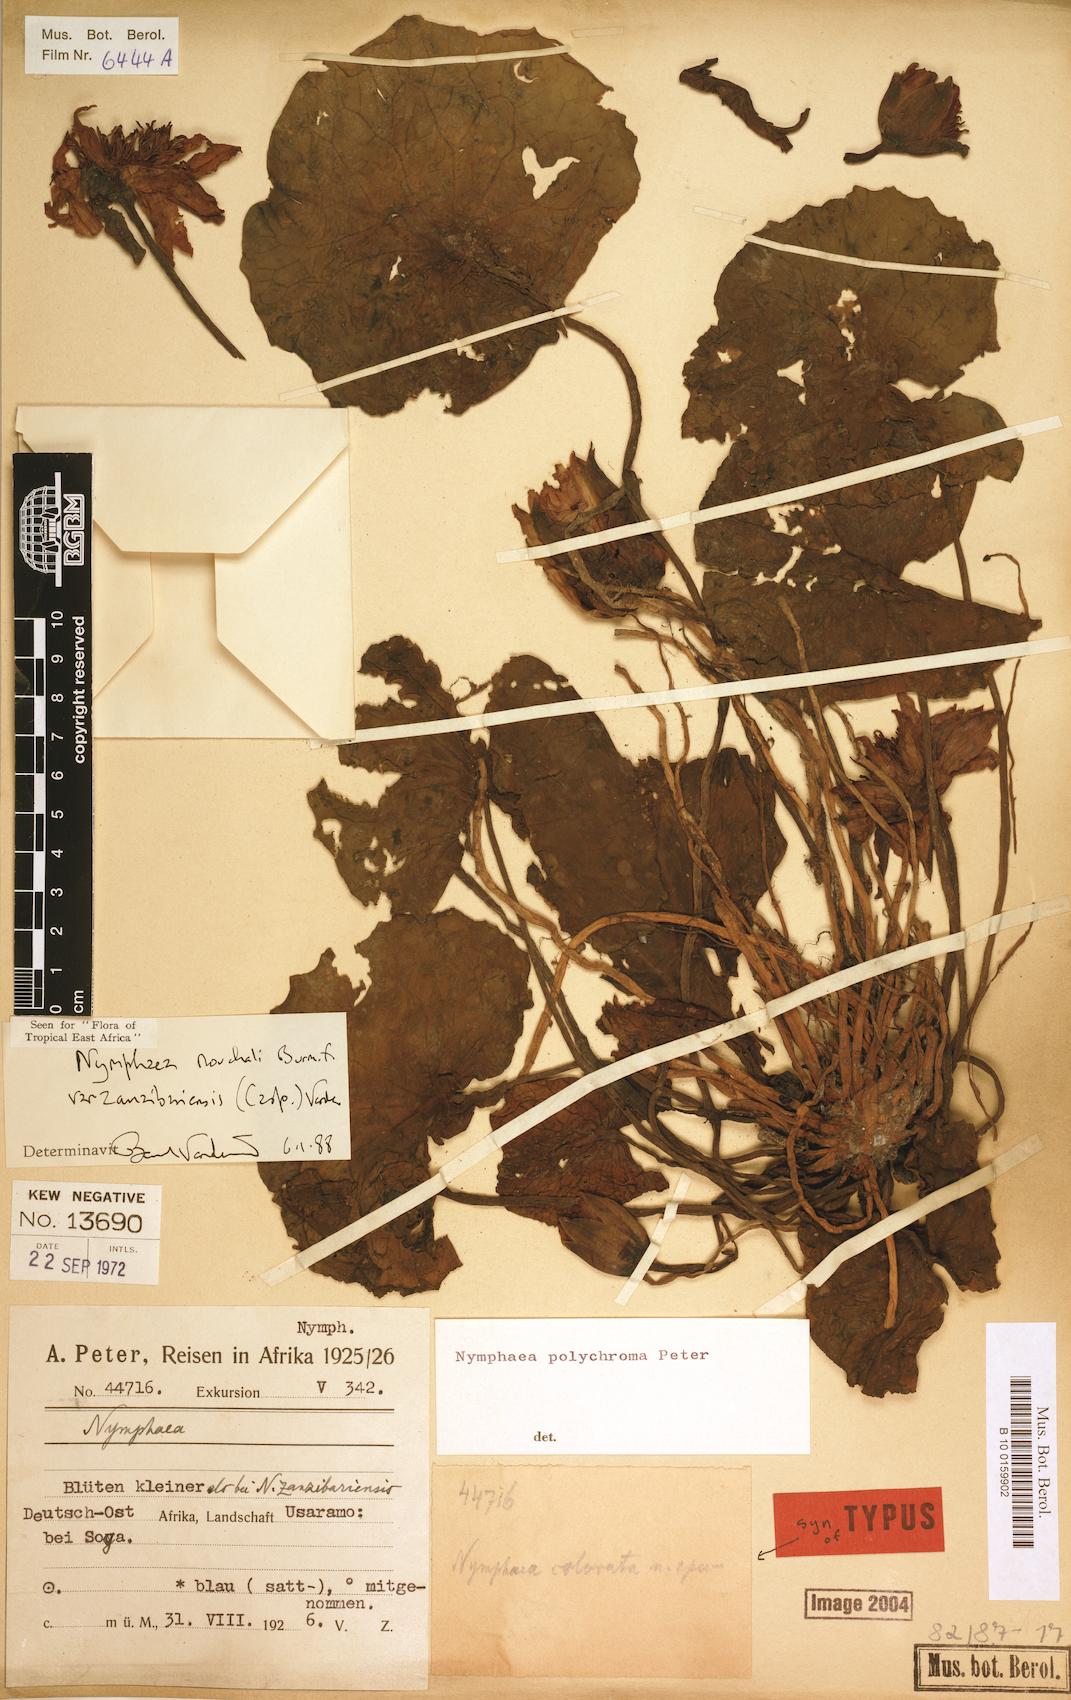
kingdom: Plantae
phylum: Tracheophyta
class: Magnoliopsida
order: Nymphaeales
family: Nymphaeaceae
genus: Nymphaea
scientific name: Nymphaea nouchali
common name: Blue lotus
